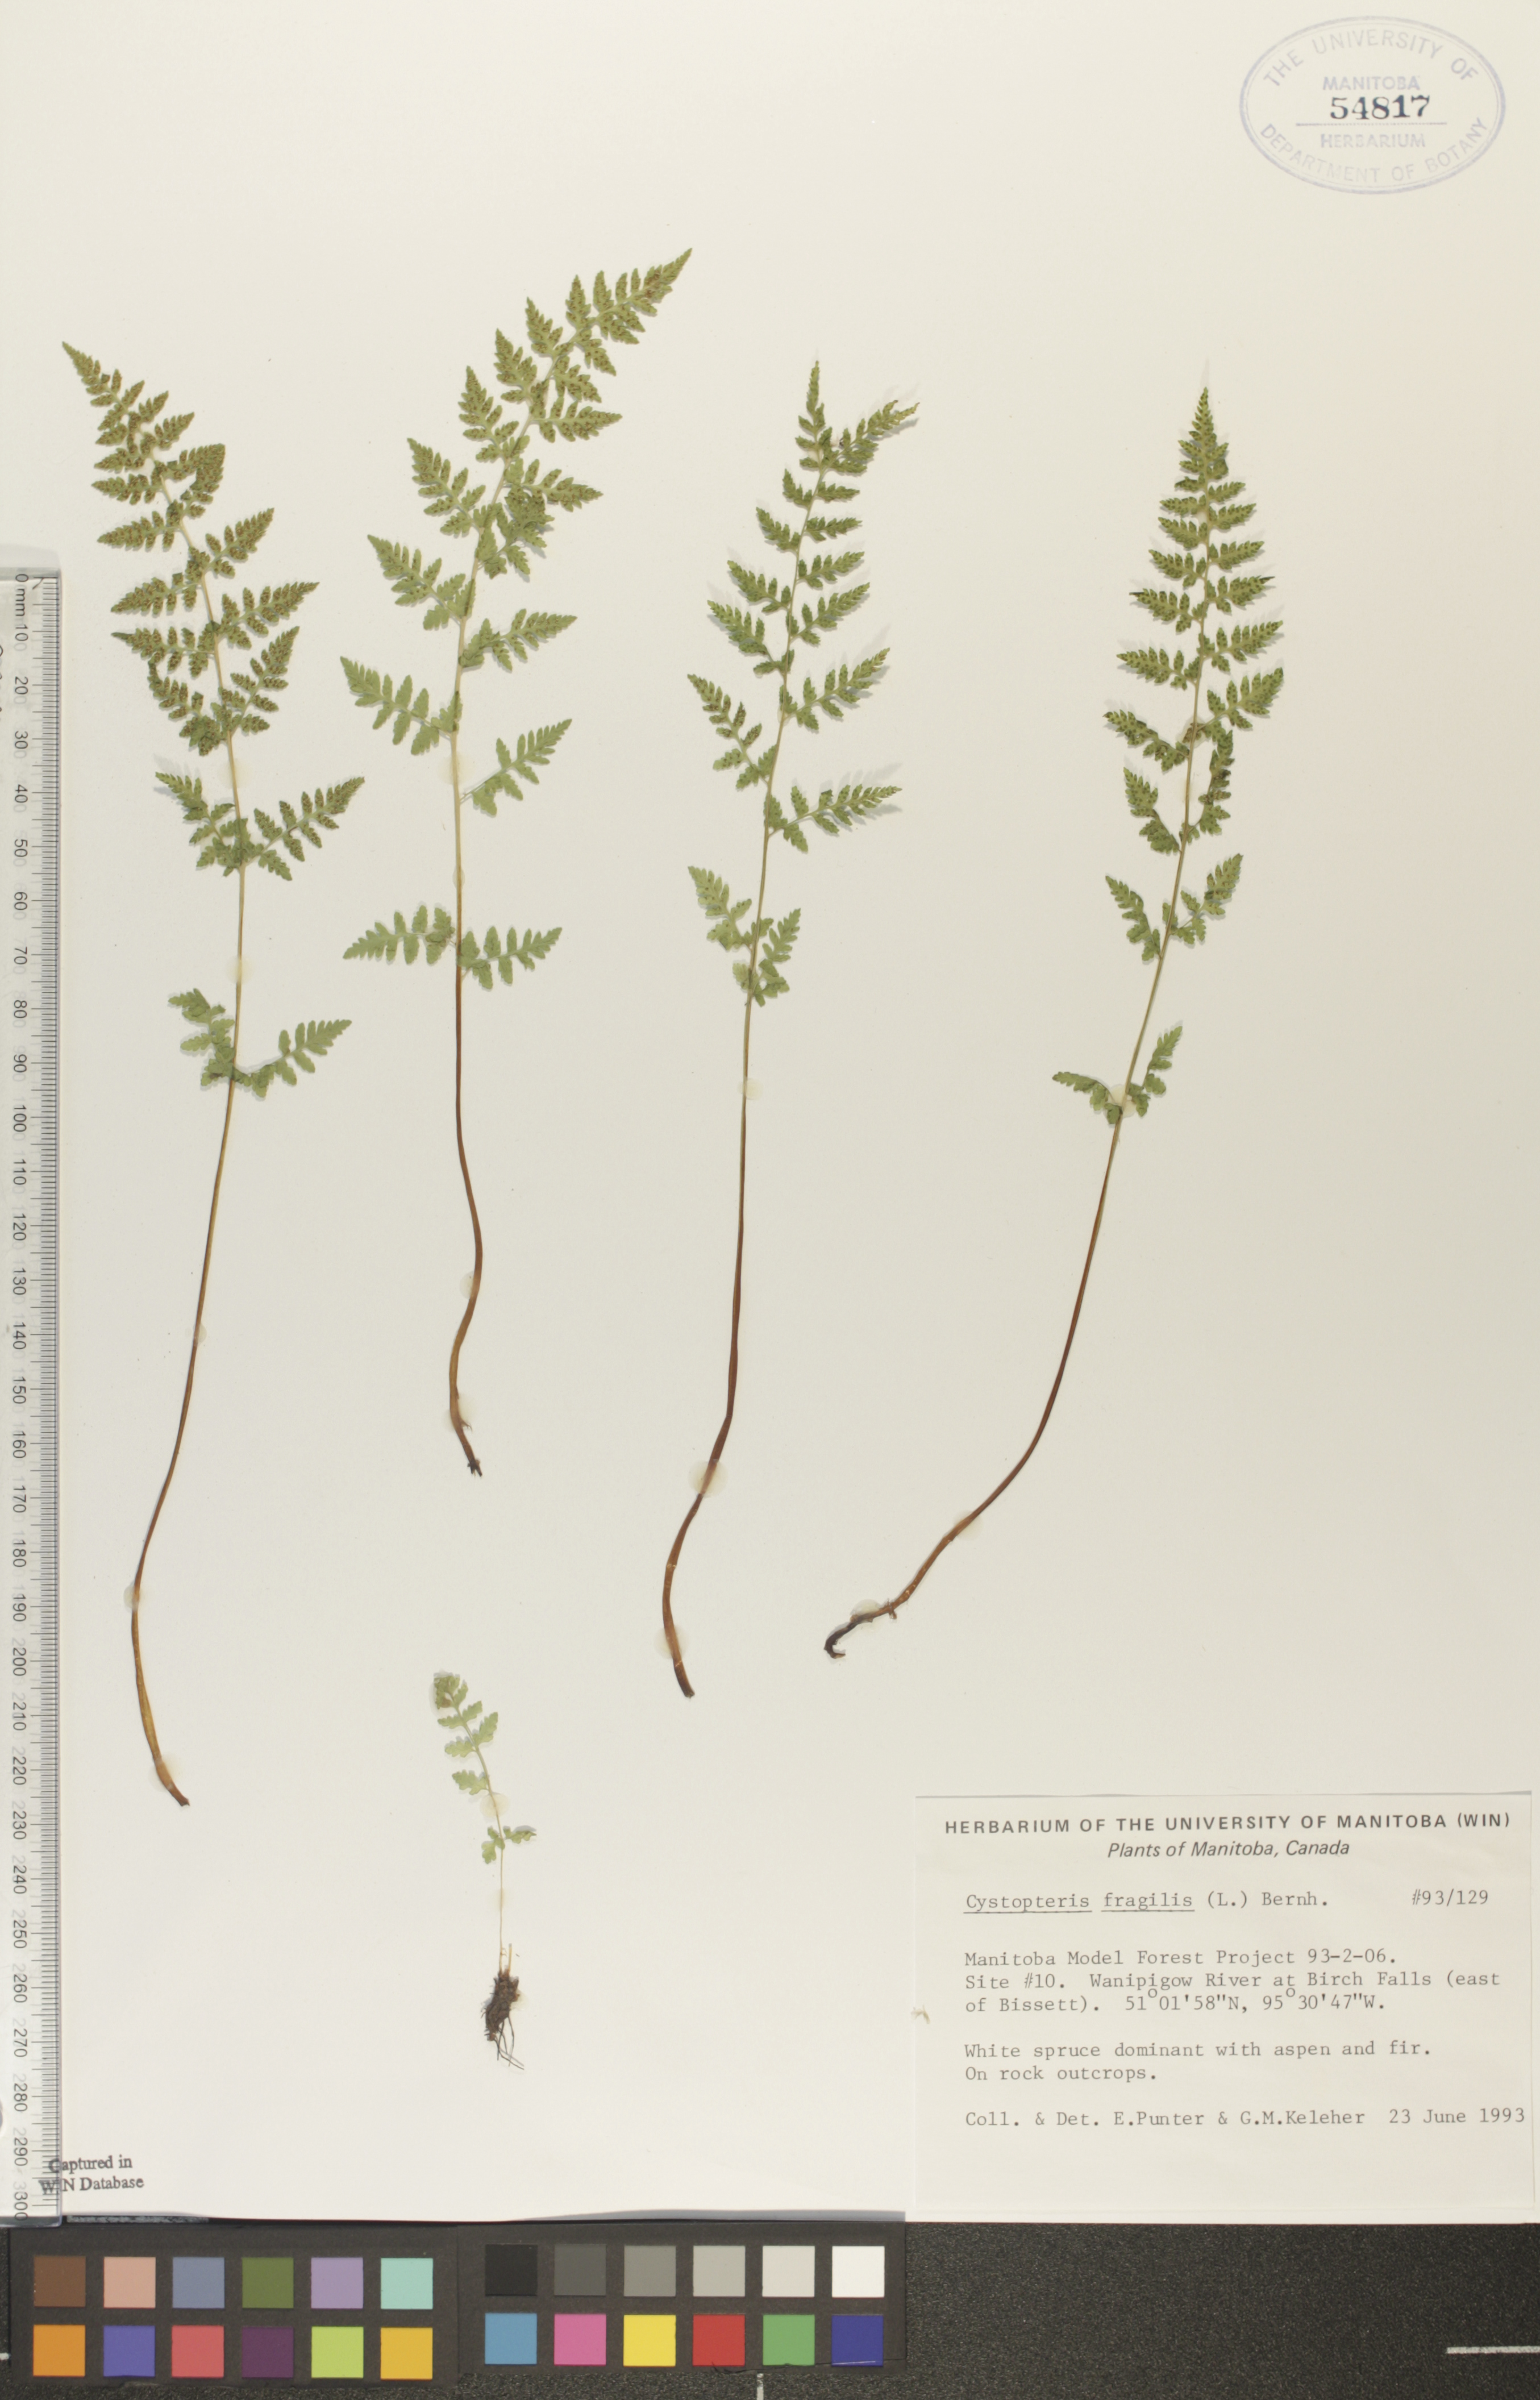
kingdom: Plantae
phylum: Tracheophyta
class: Polypodiopsida
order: Polypodiales
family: Cystopteridaceae
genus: Cystopteris
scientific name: Cystopteris fragilis
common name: Brittle bladder fern
